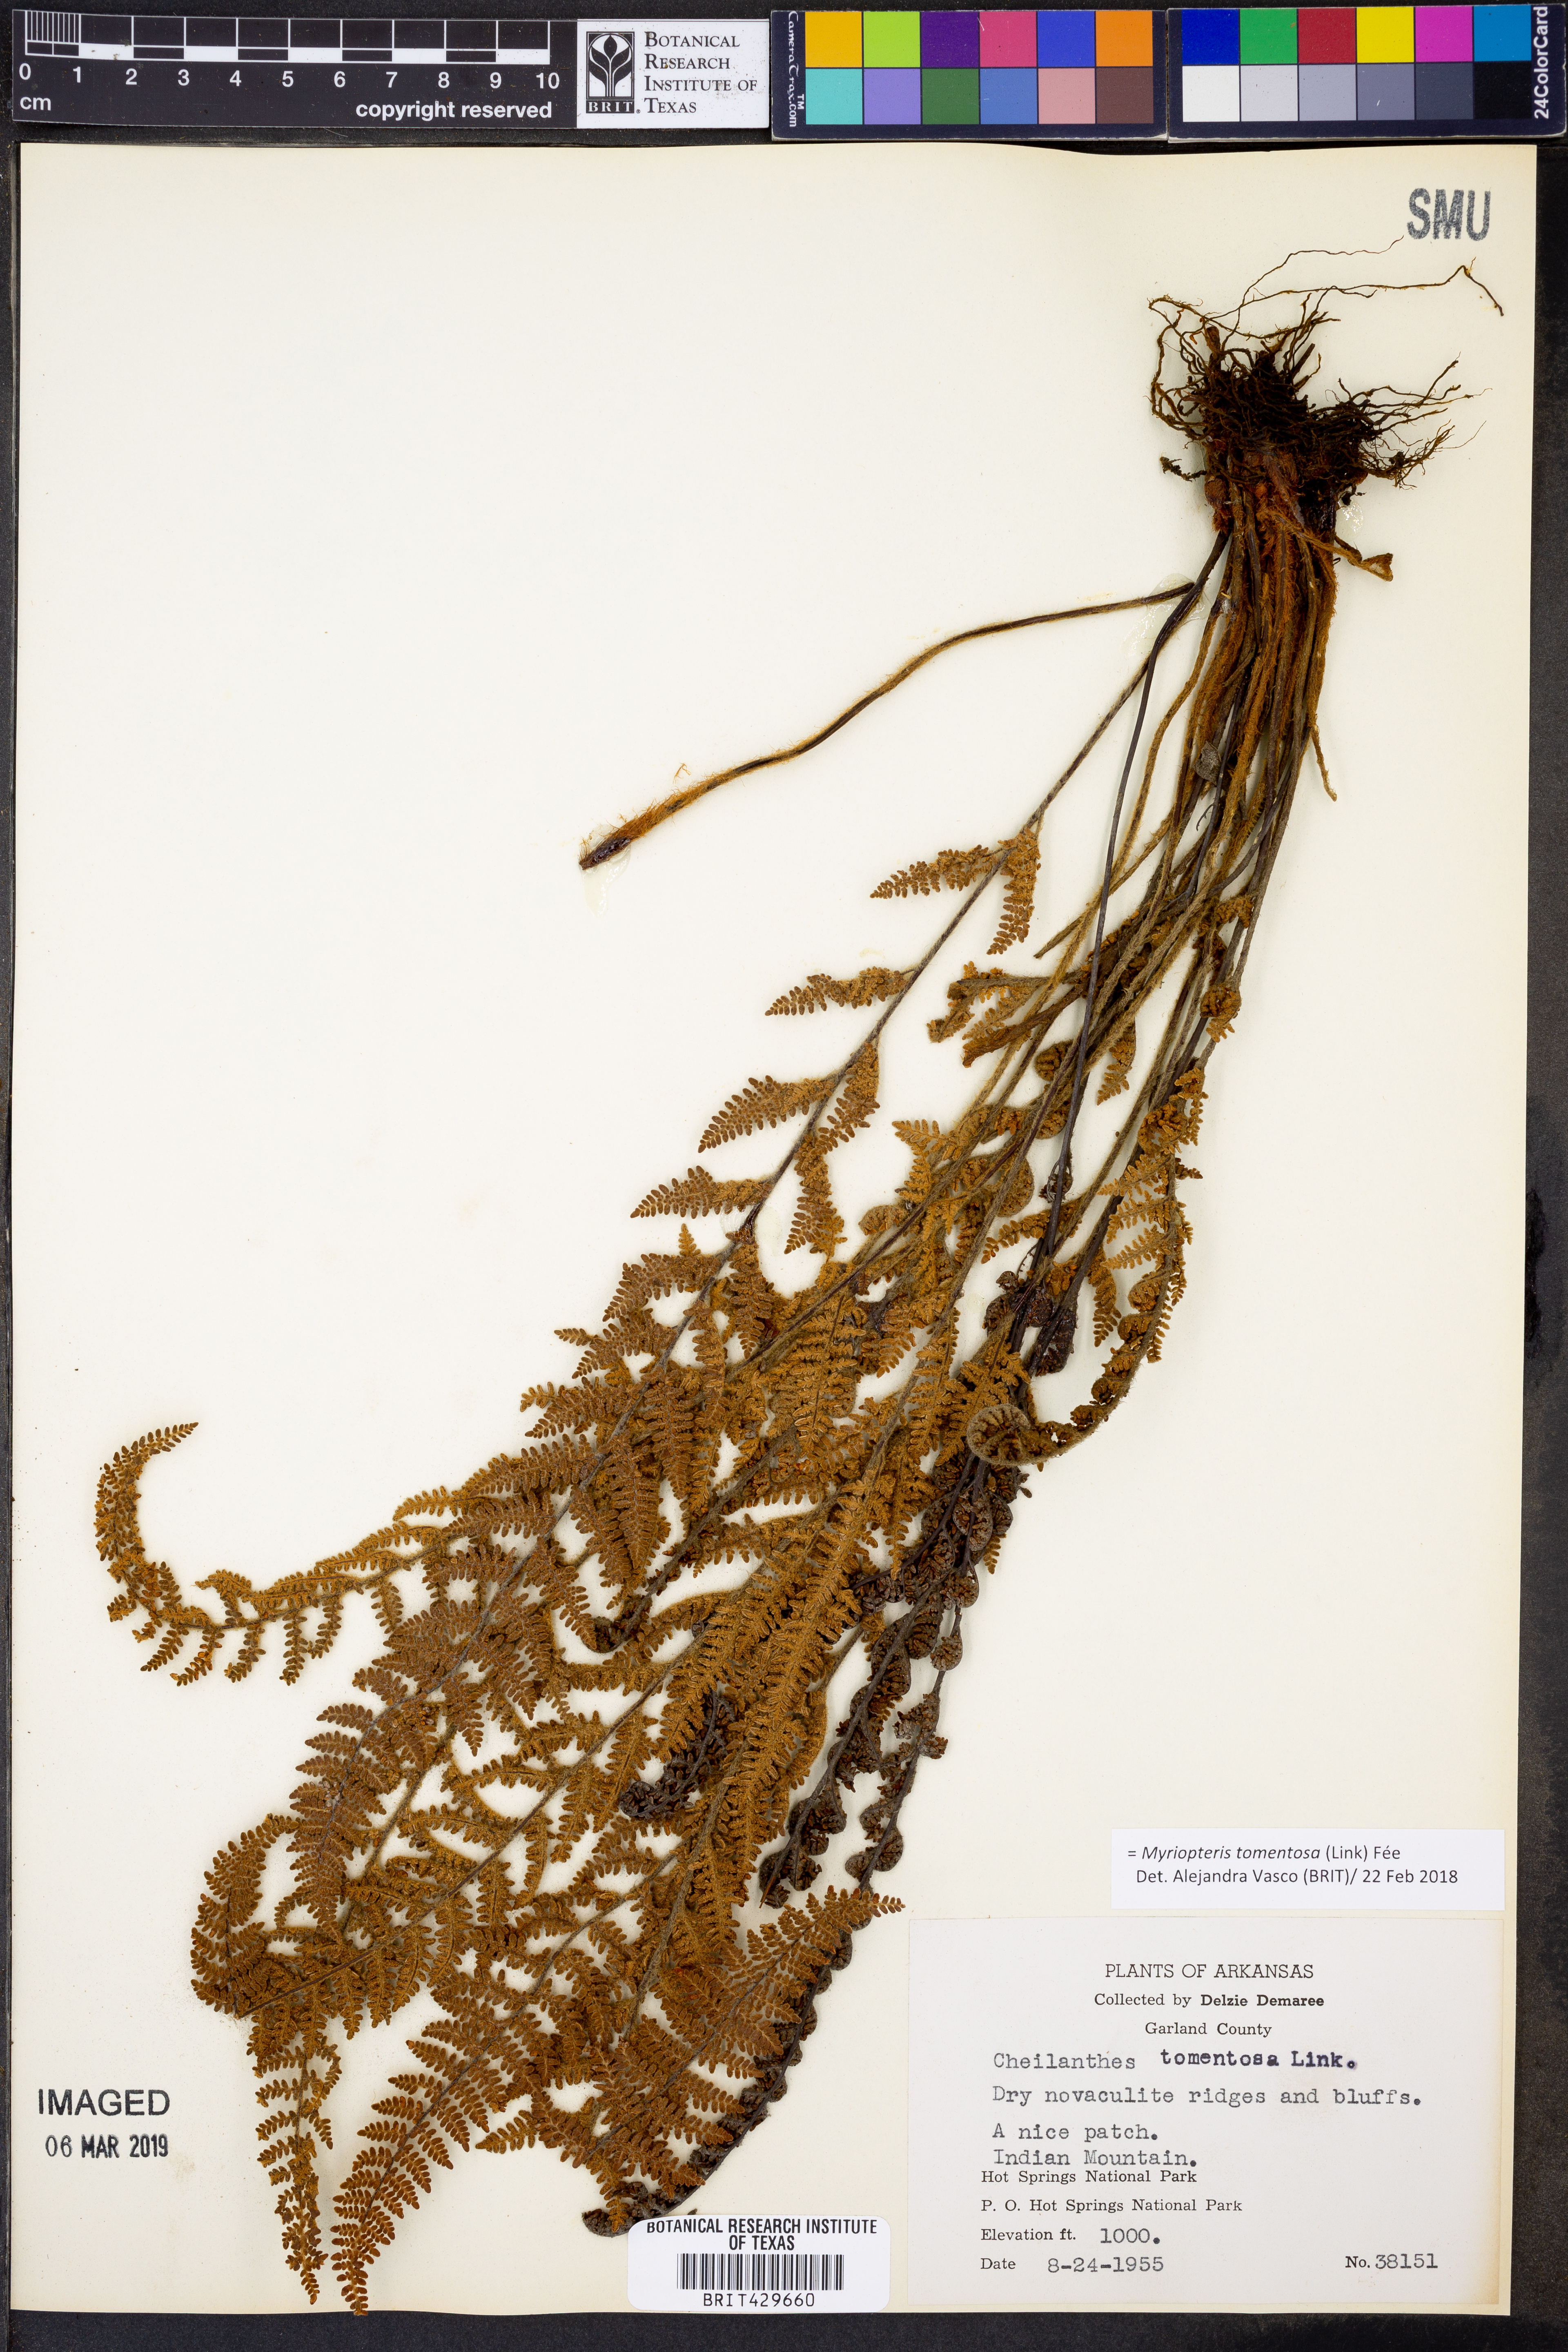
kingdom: Plantae
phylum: Tracheophyta
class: Polypodiopsida
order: Polypodiales
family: Pteridaceae
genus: Myriopteris
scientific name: Myriopteris tomentosa
